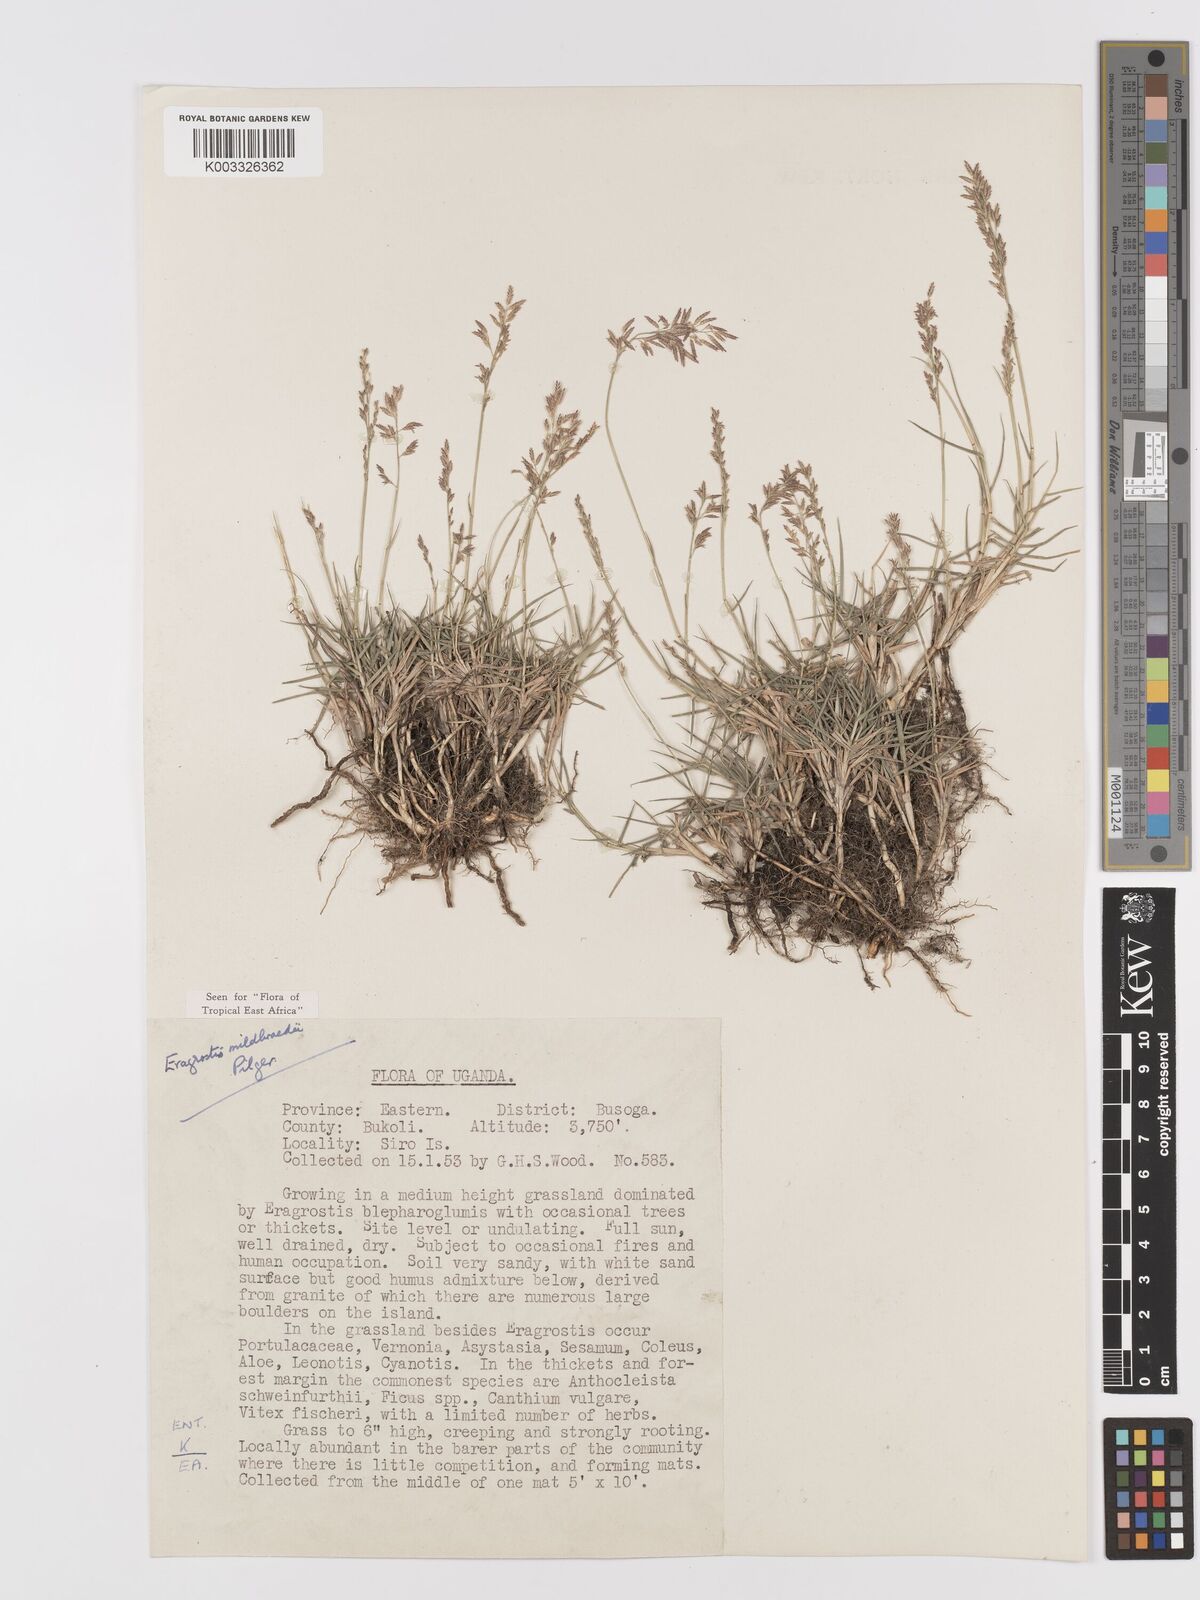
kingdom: Plantae
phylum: Tracheophyta
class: Liliopsida
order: Poales
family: Poaceae
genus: Eragrostis
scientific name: Eragrostis mildbraedii
